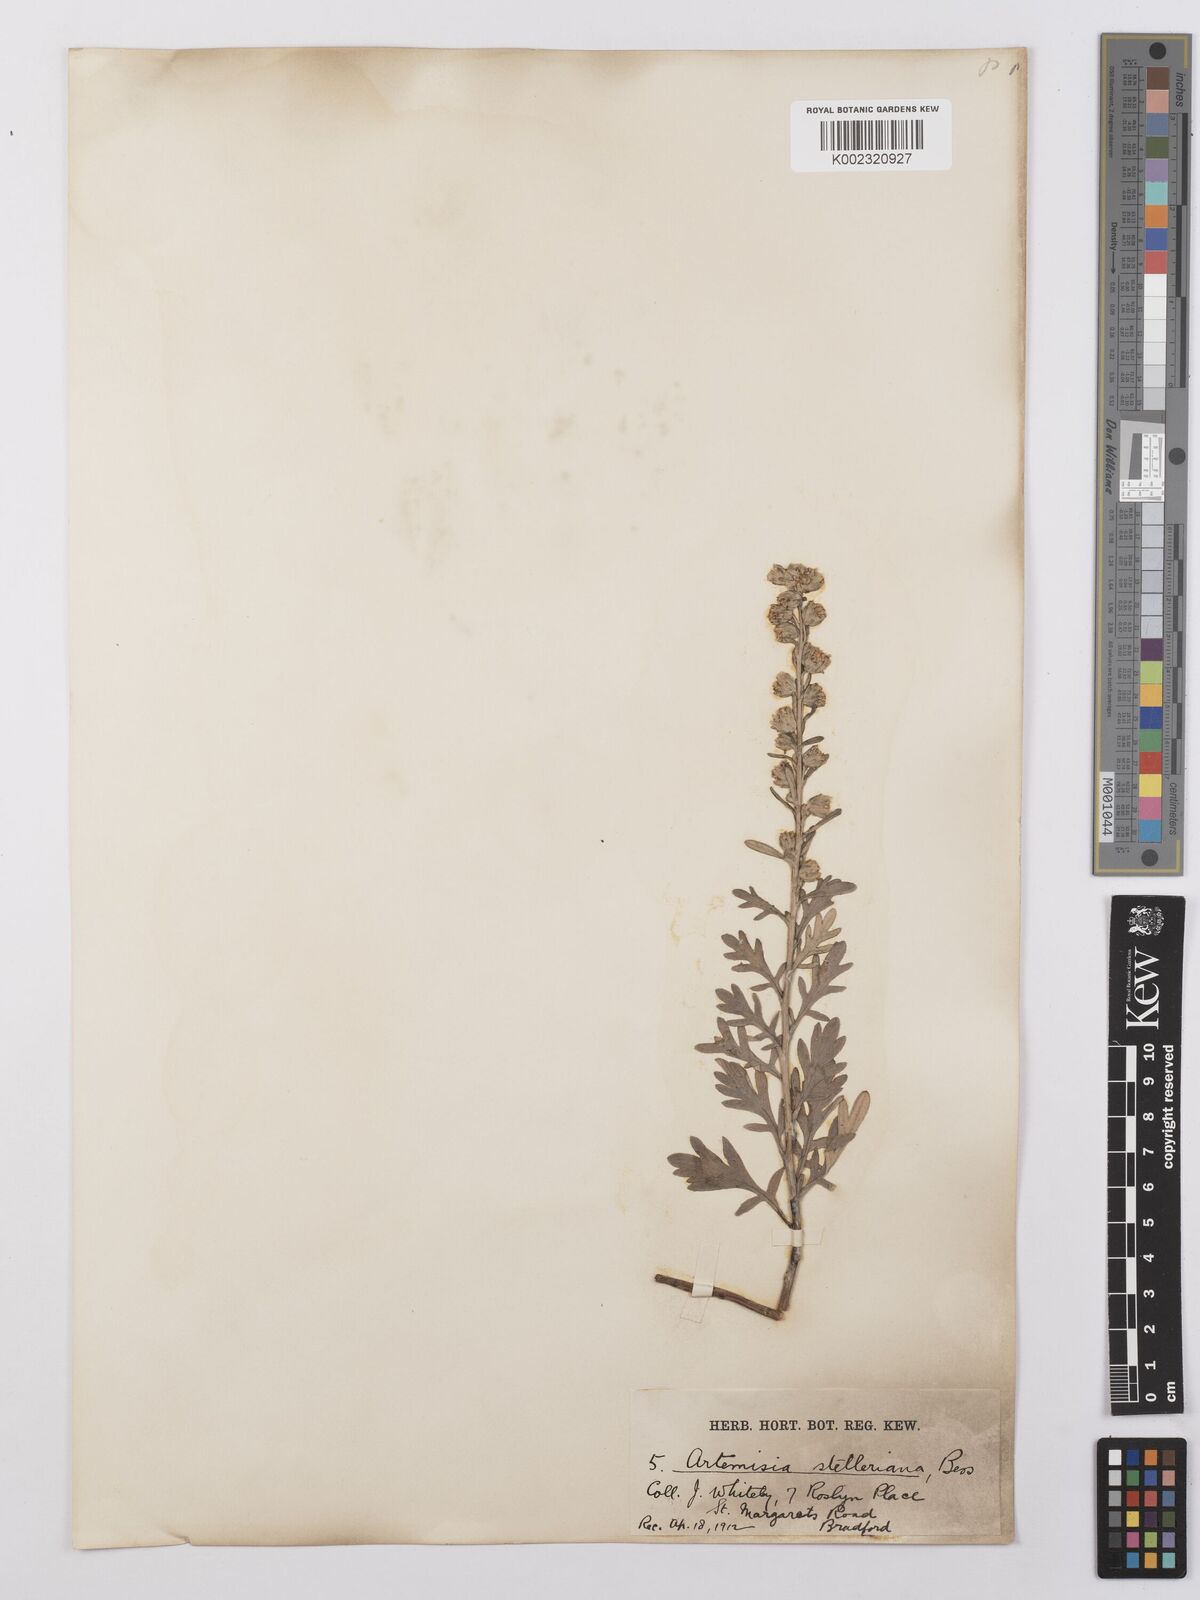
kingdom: Plantae
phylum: Tracheophyta
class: Magnoliopsida
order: Asterales
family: Asteraceae
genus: Artemisia
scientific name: Artemisia stelleriana
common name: Beach wormwood
